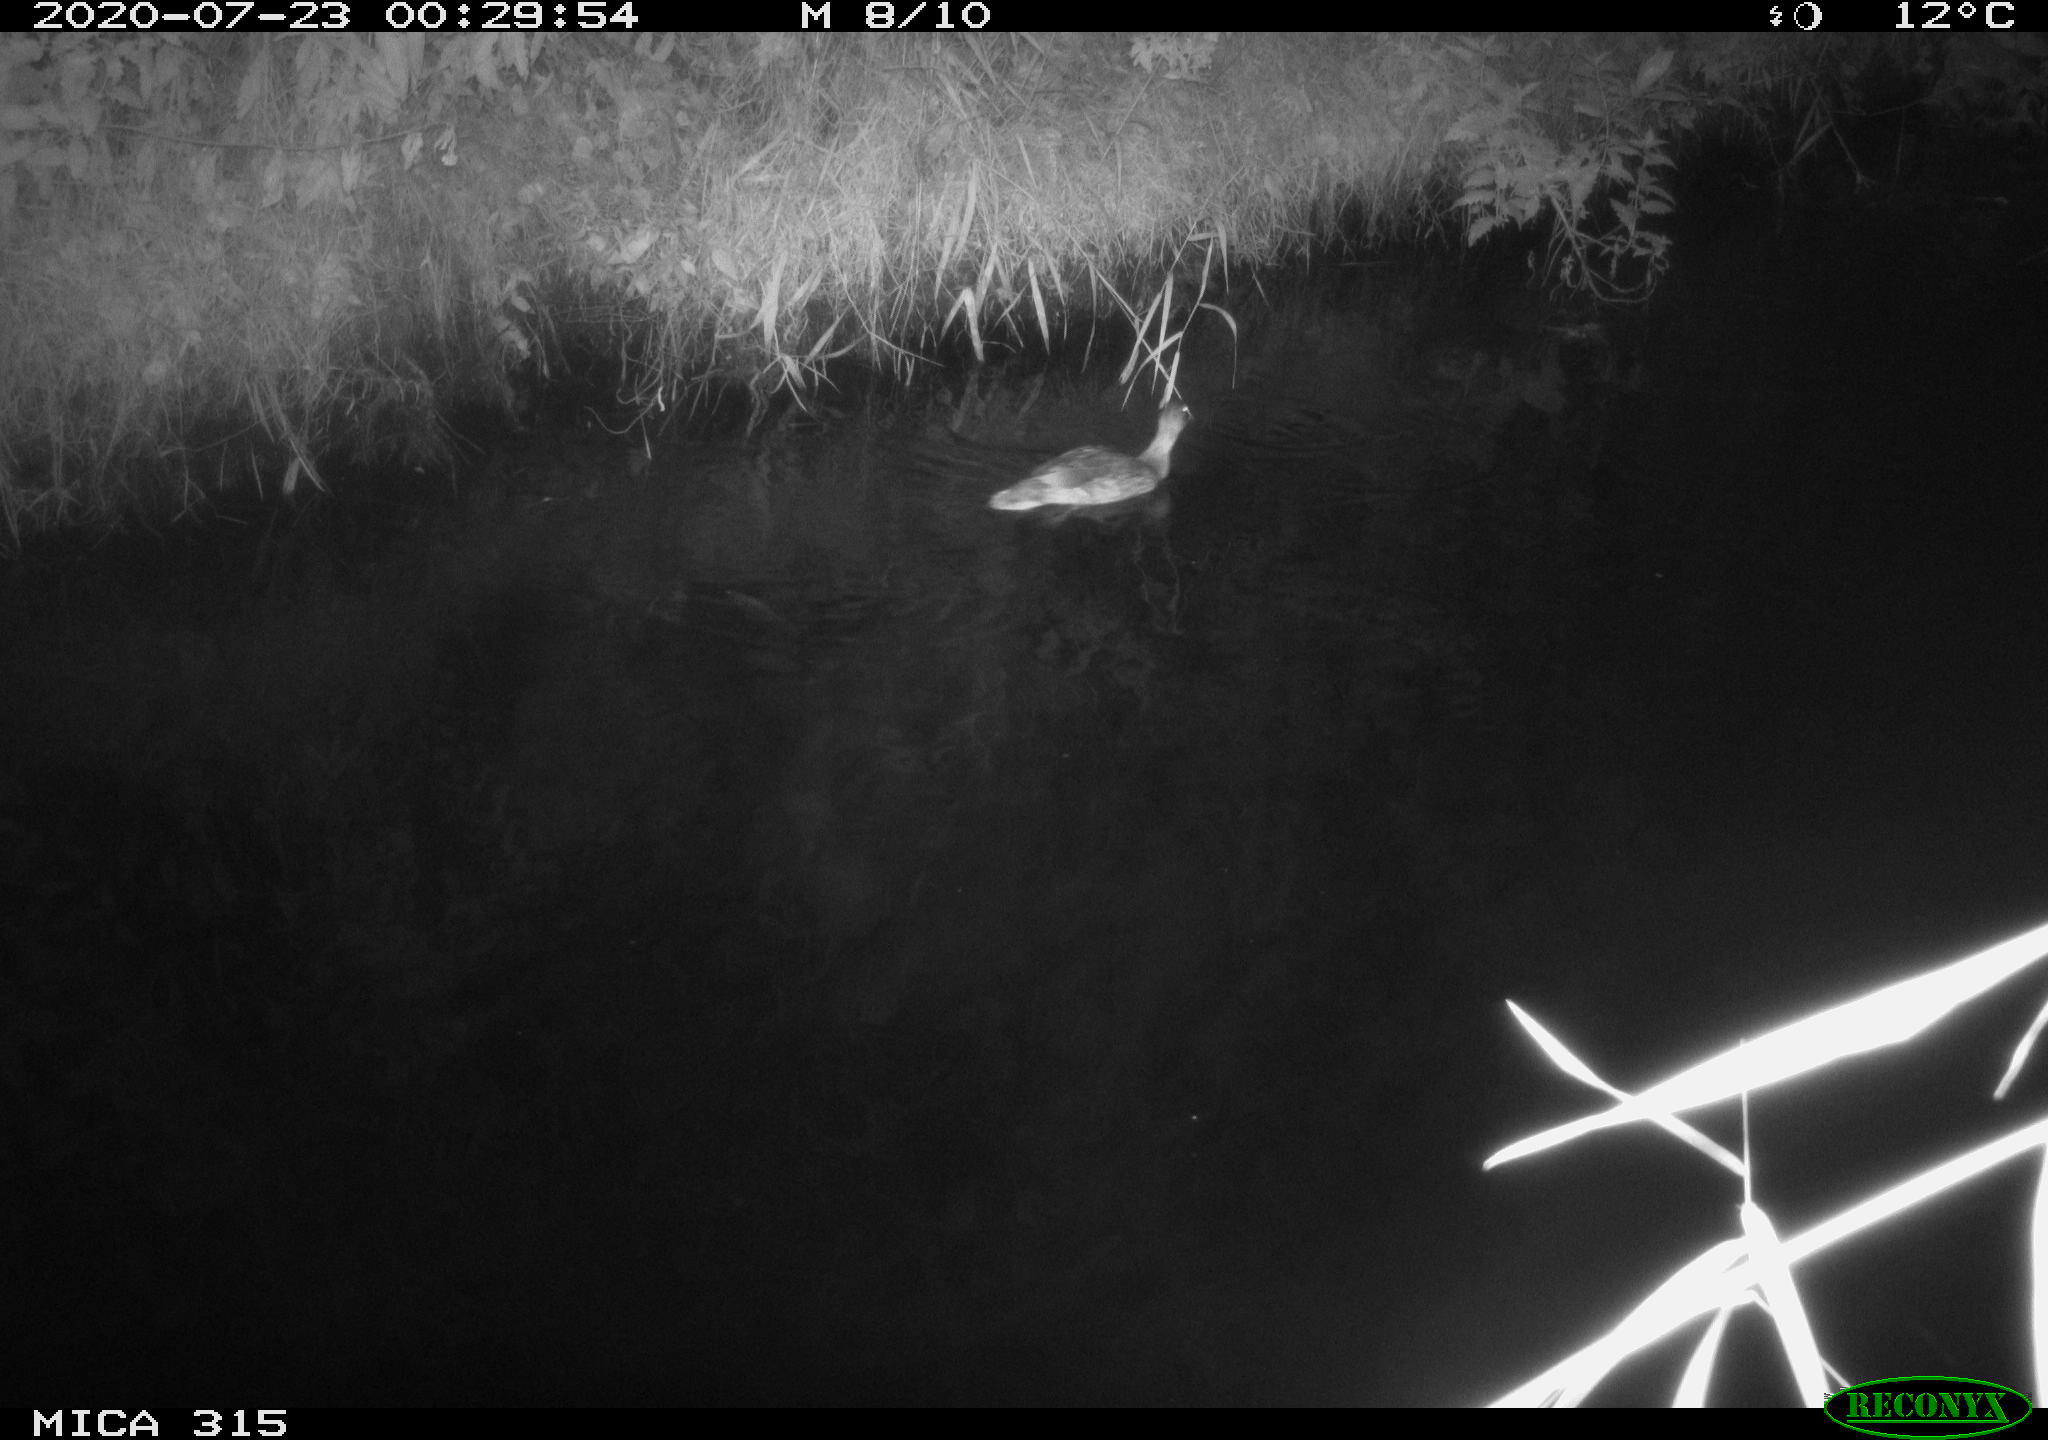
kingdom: Animalia
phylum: Chordata
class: Aves
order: Anseriformes
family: Anatidae
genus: Anas
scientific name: Anas platyrhynchos
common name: Mallard
